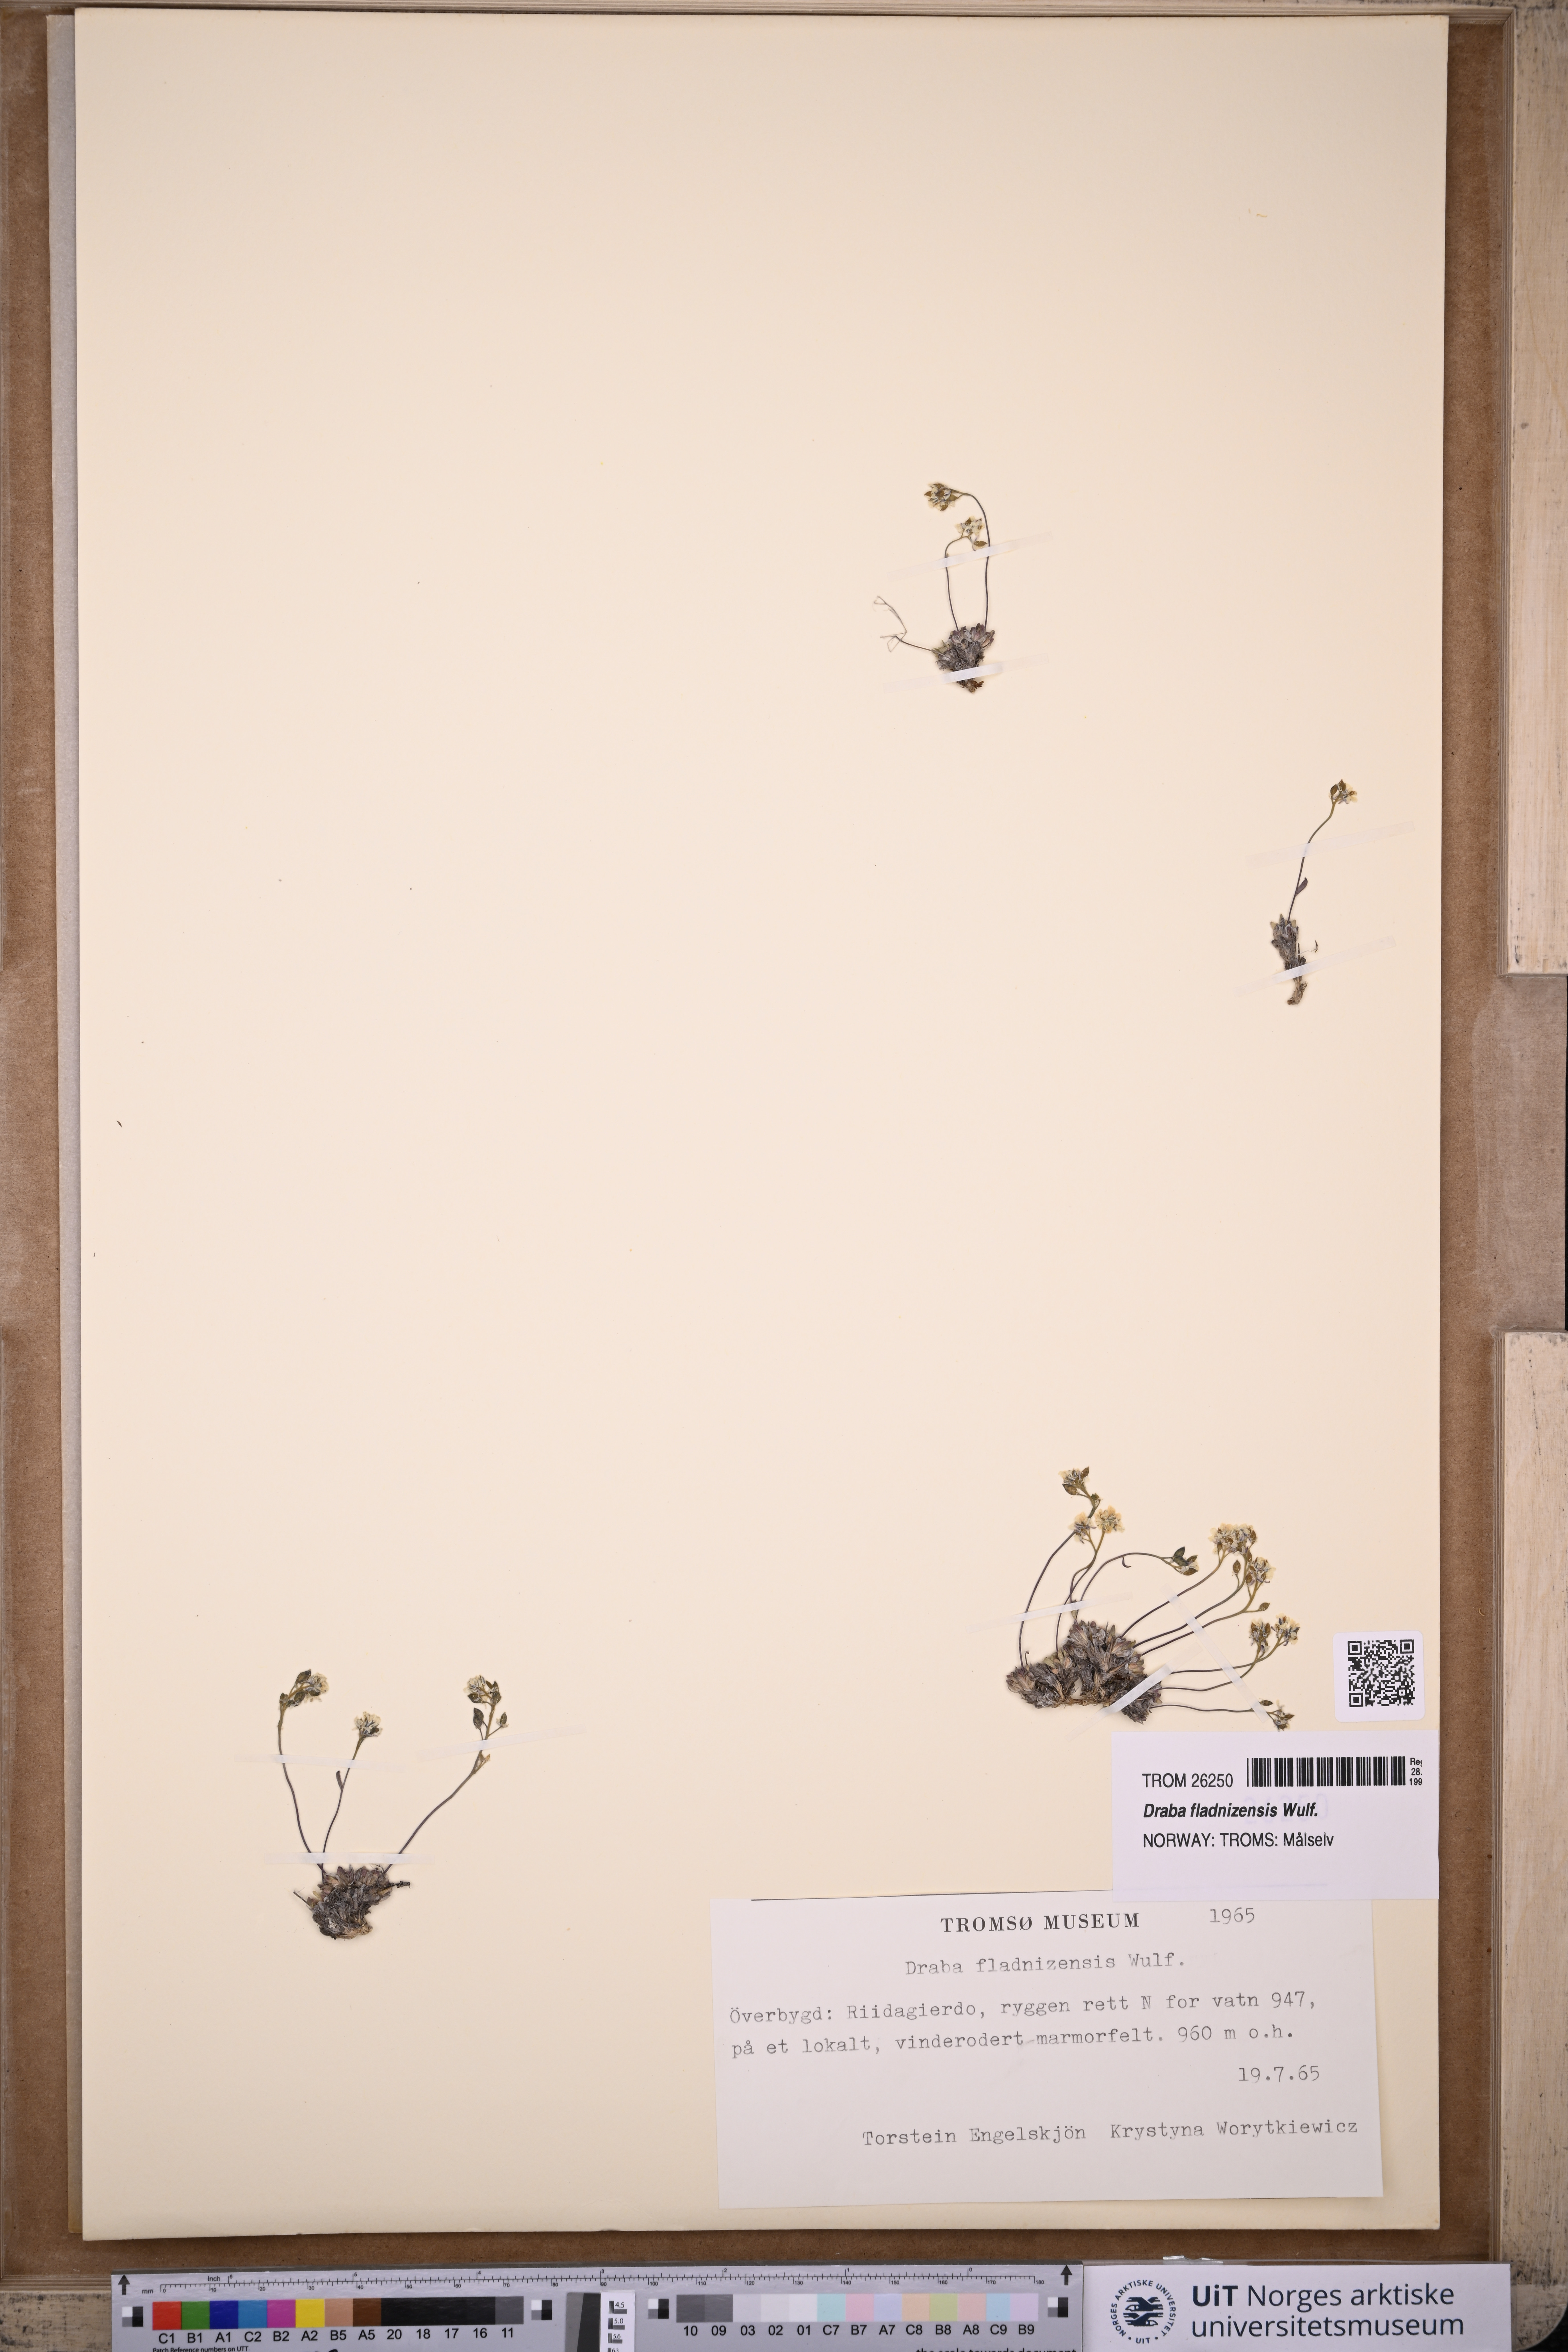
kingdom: Plantae
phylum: Tracheophyta
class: Magnoliopsida
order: Brassicales
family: Brassicaceae
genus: Draba
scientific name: Draba fladnizensis
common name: Austrian draba
